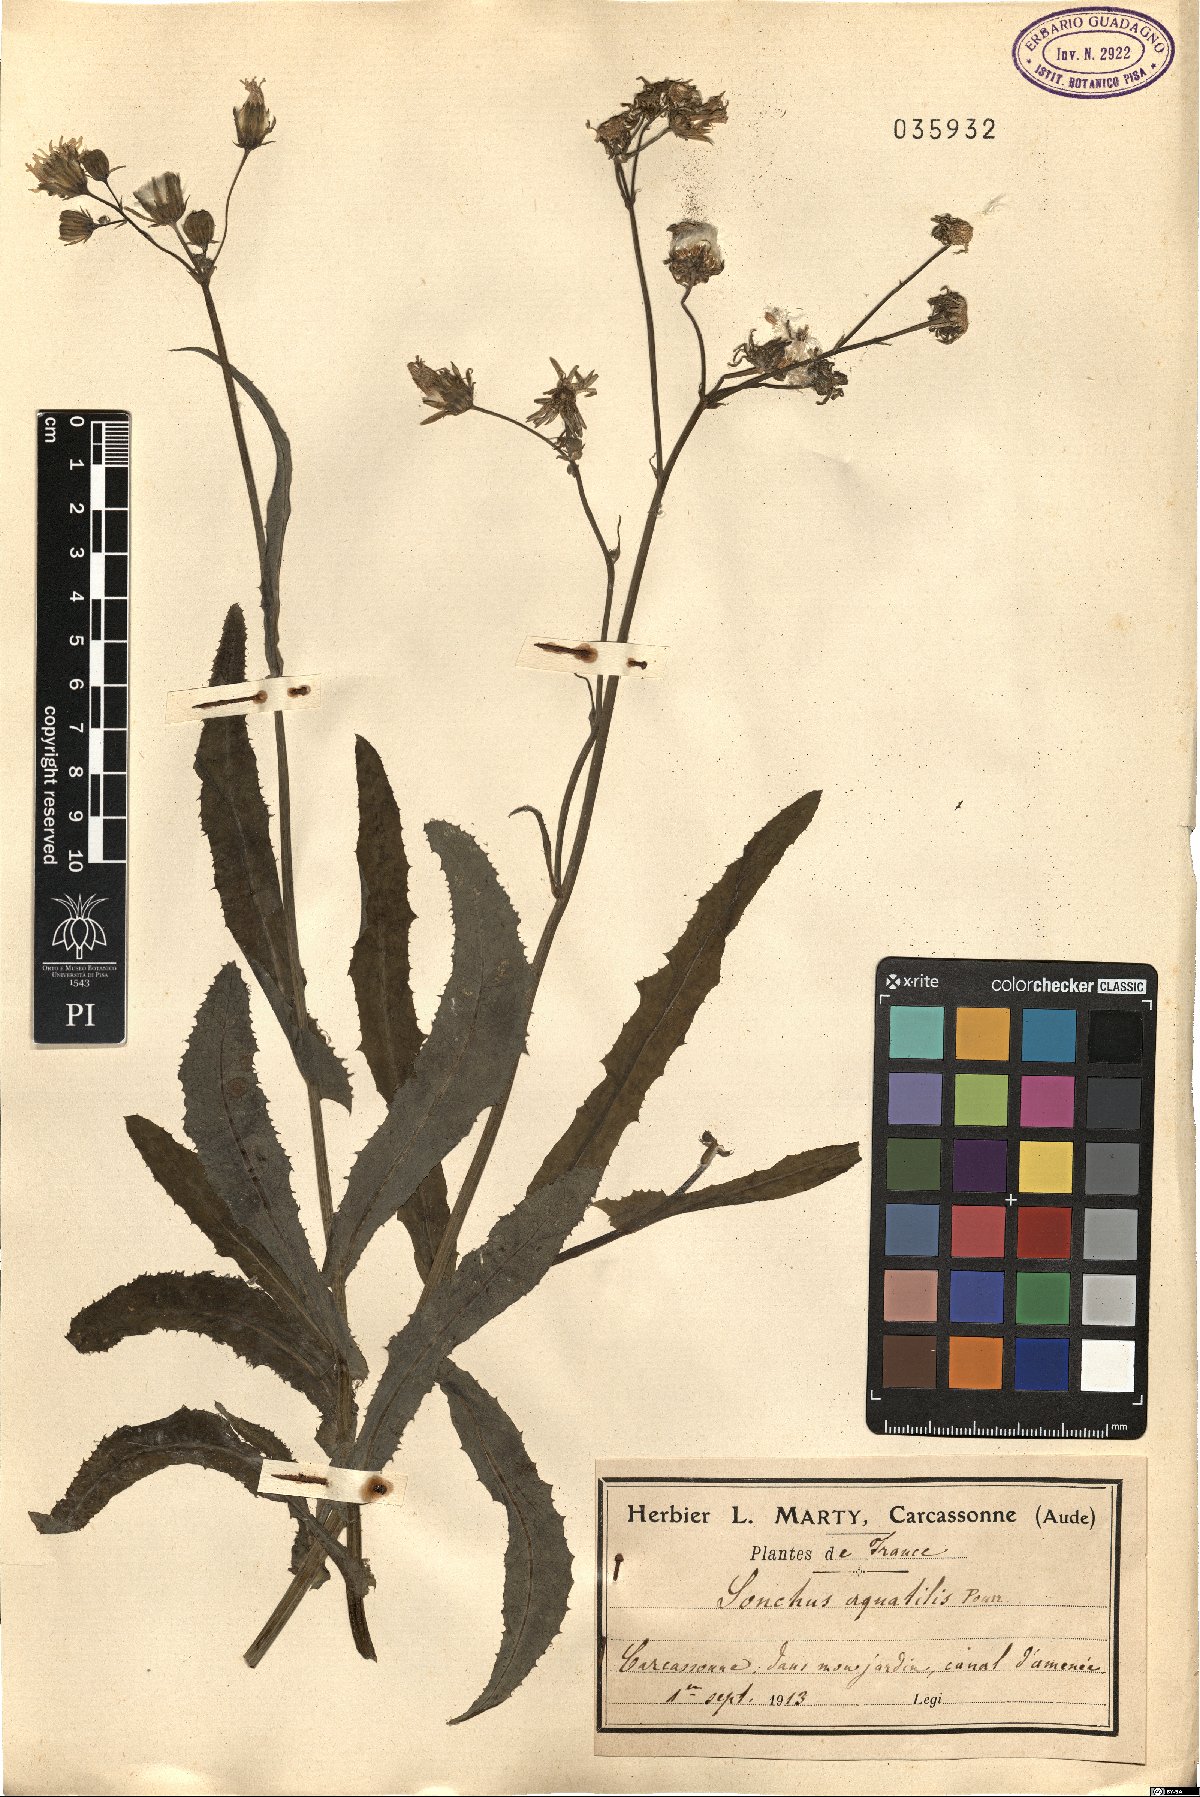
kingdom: Plantae
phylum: Tracheophyta
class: Magnoliopsida
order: Asterales
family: Asteraceae
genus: Sonchus
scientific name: Sonchus aquatilis
